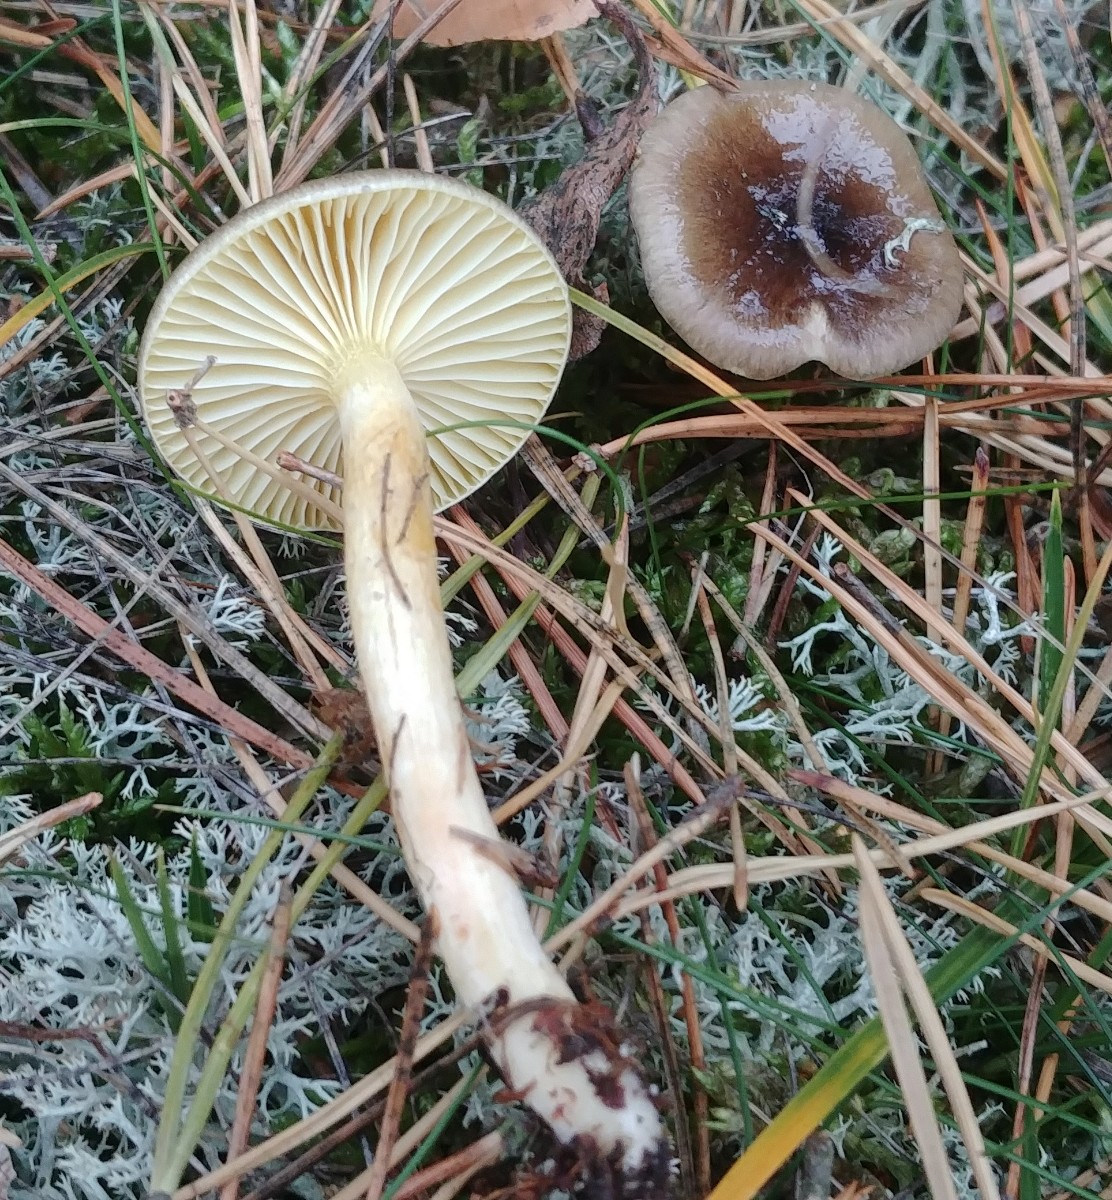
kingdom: Fungi
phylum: Basidiomycota
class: Agaricomycetes
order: Agaricales
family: Hygrophoraceae
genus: Hygrophorus
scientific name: Hygrophorus hypothejus
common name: frost-sneglehat
